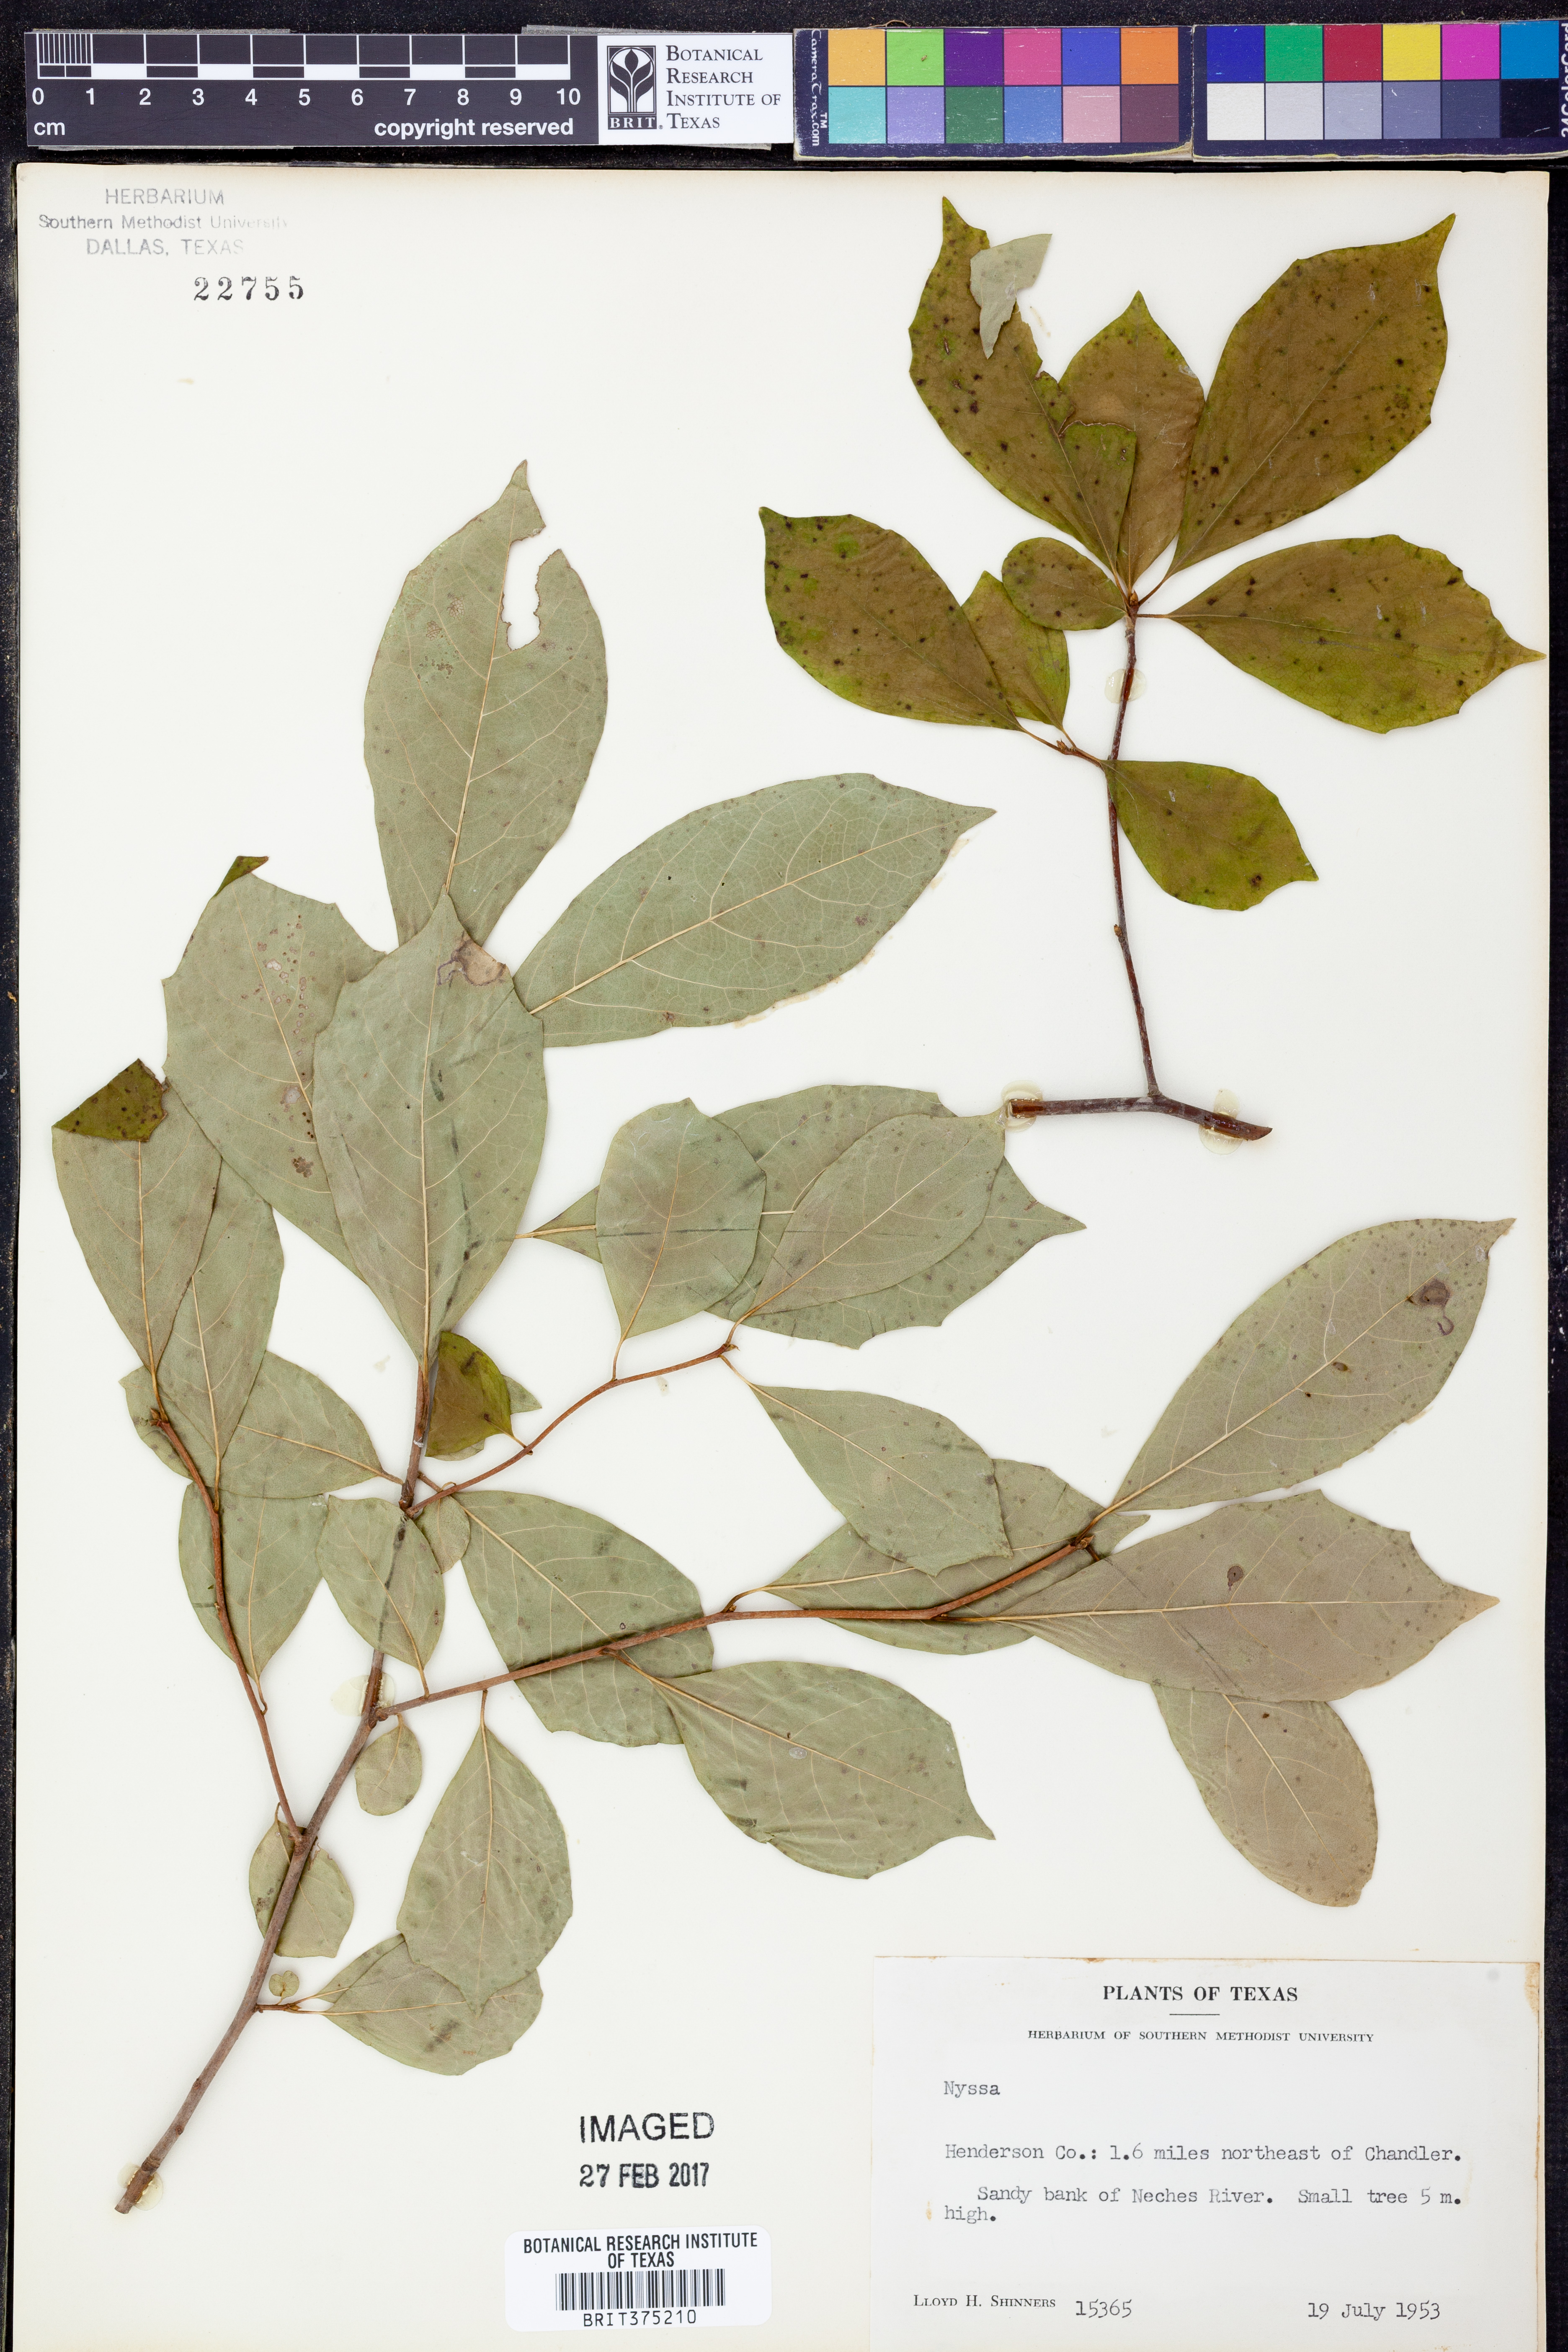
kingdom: Plantae
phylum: Tracheophyta
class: Magnoliopsida
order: Cornales
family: Nyssaceae
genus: Nyssa
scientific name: Nyssa
